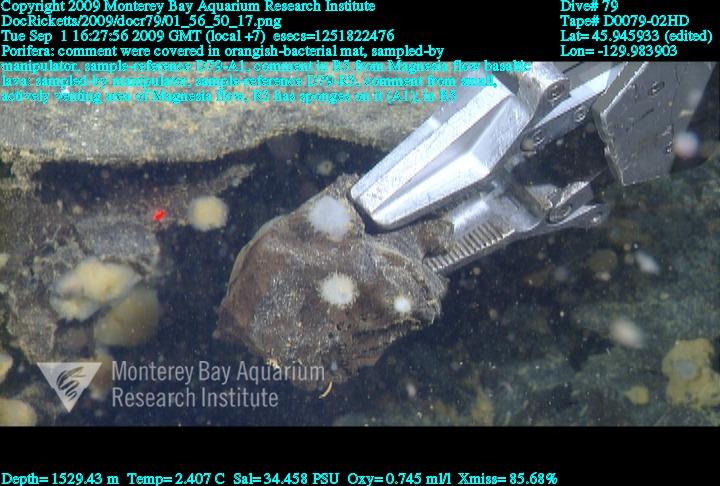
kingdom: Animalia
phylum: Porifera
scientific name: Porifera
